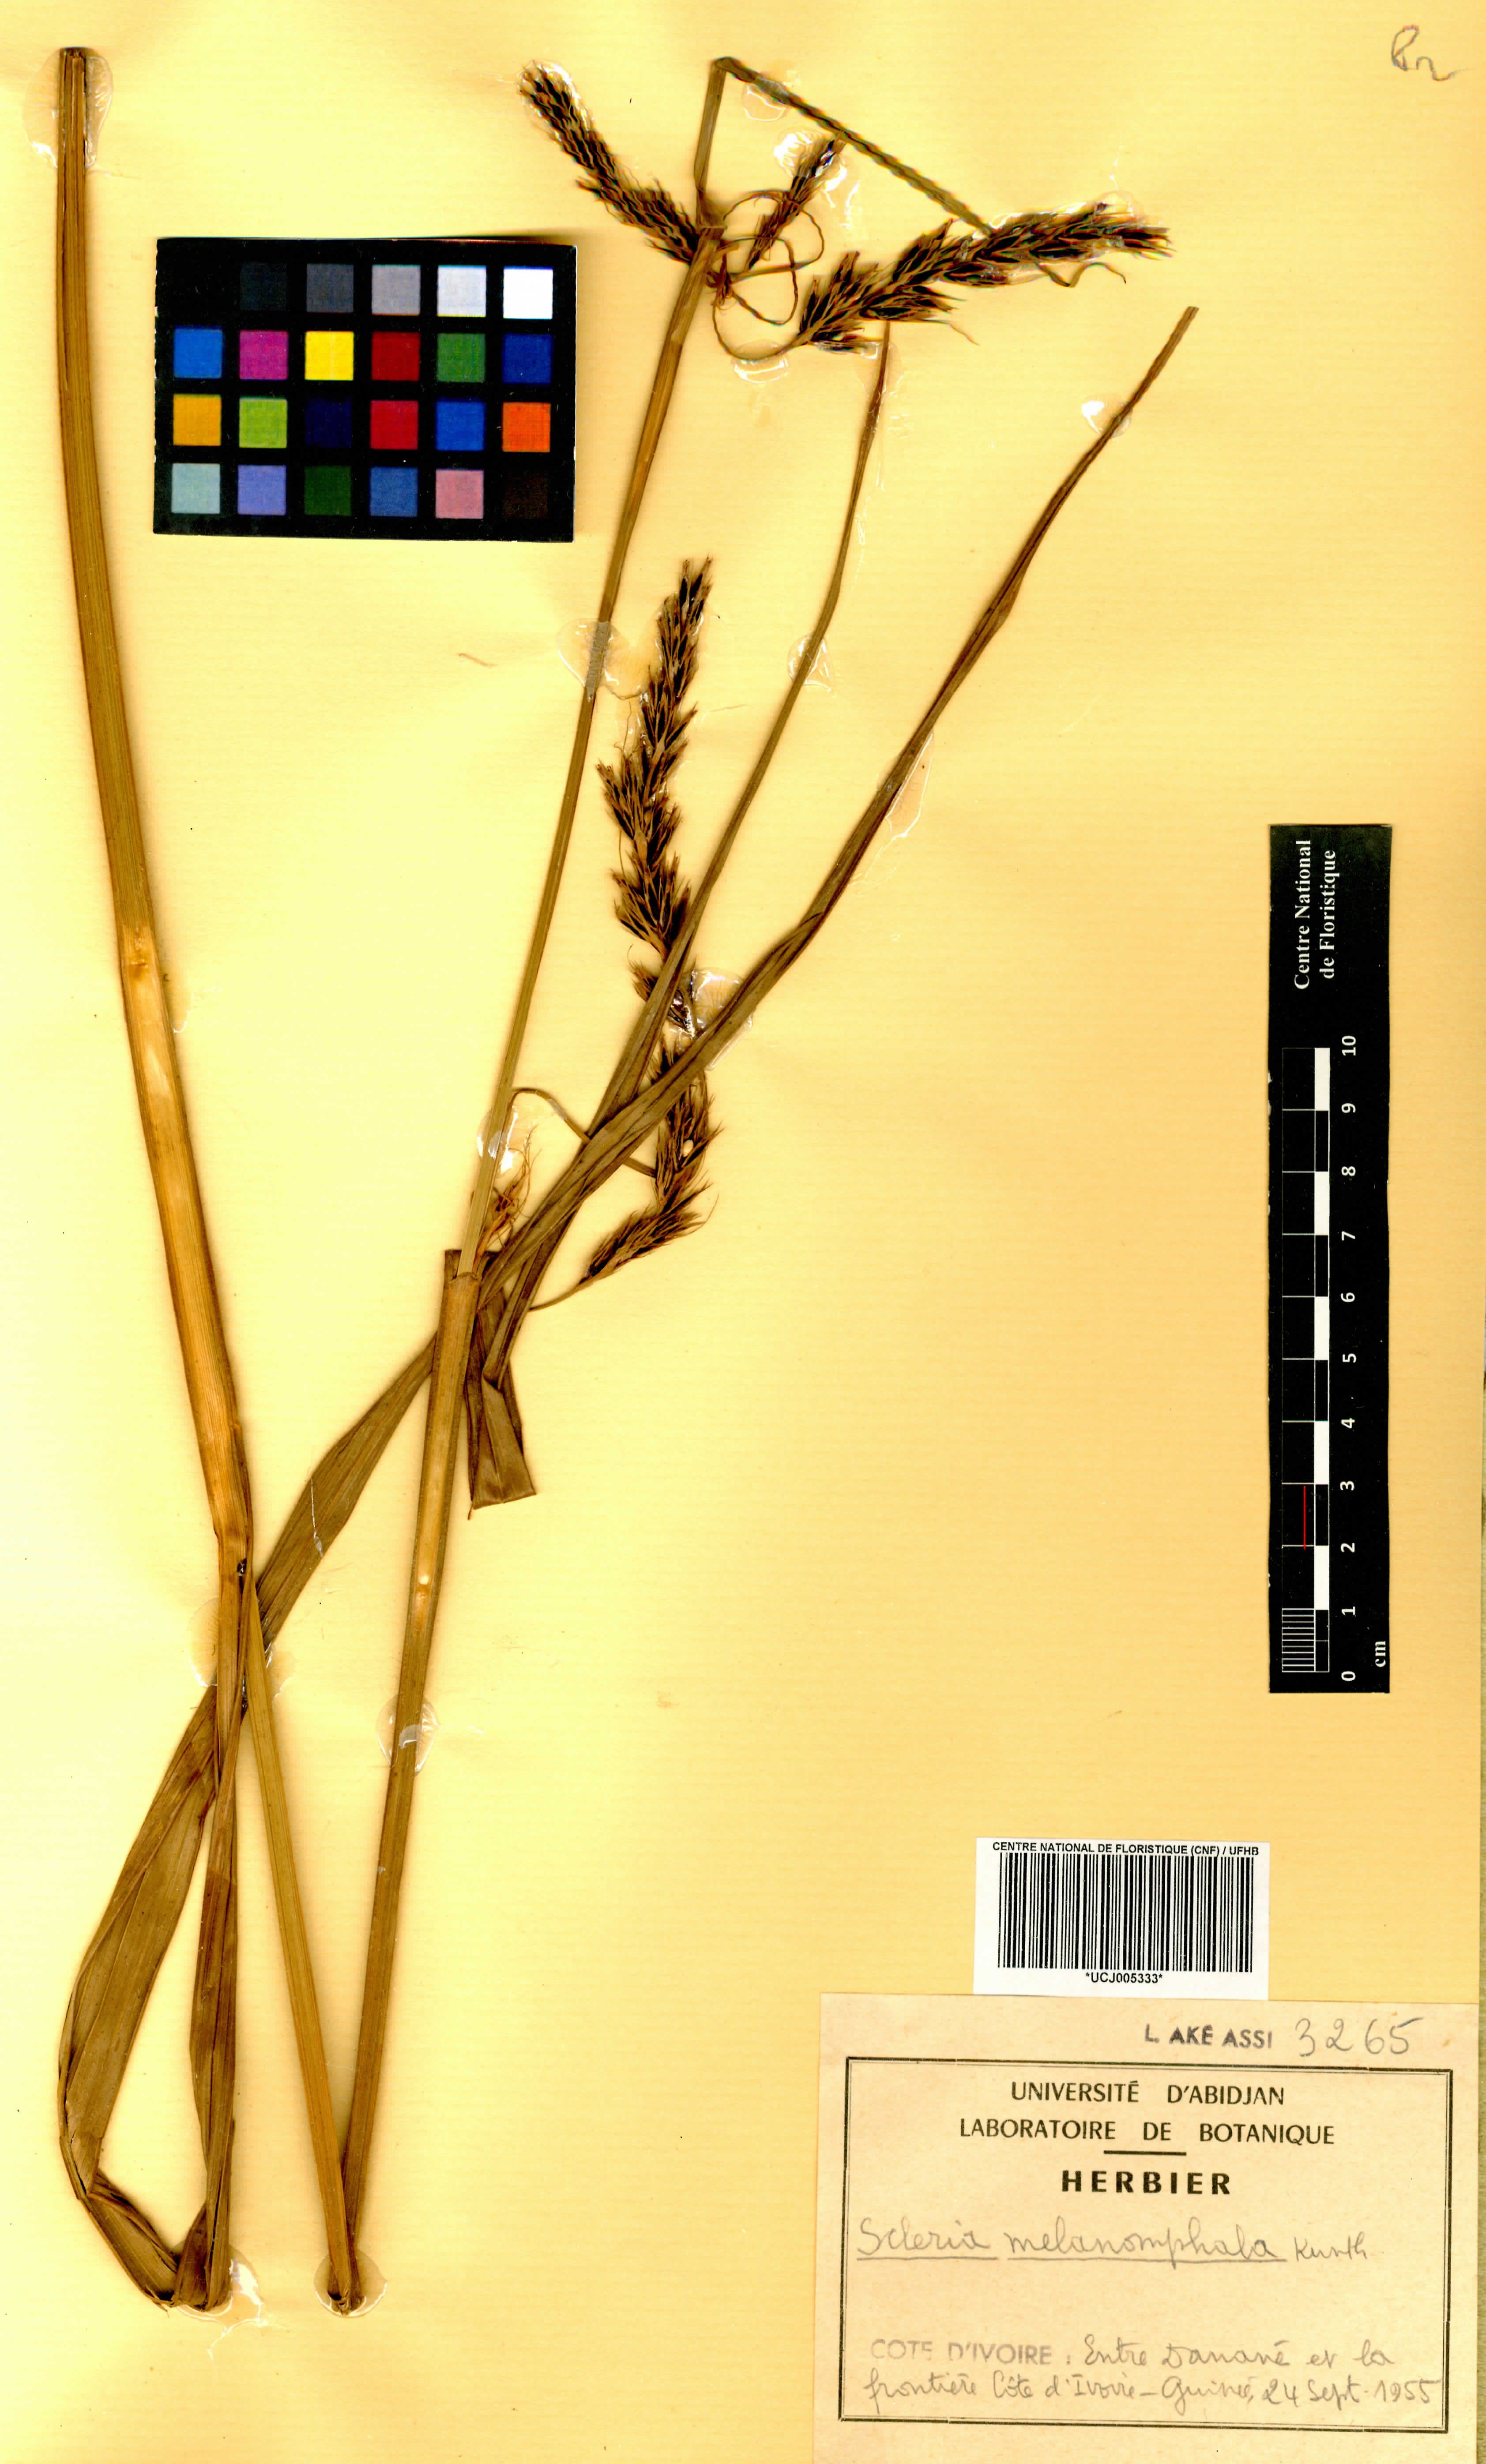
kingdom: Plantae
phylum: Tracheophyta
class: Liliopsida
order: Poales
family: Cyperaceae
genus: Scleria
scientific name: Scleria melanomphala
